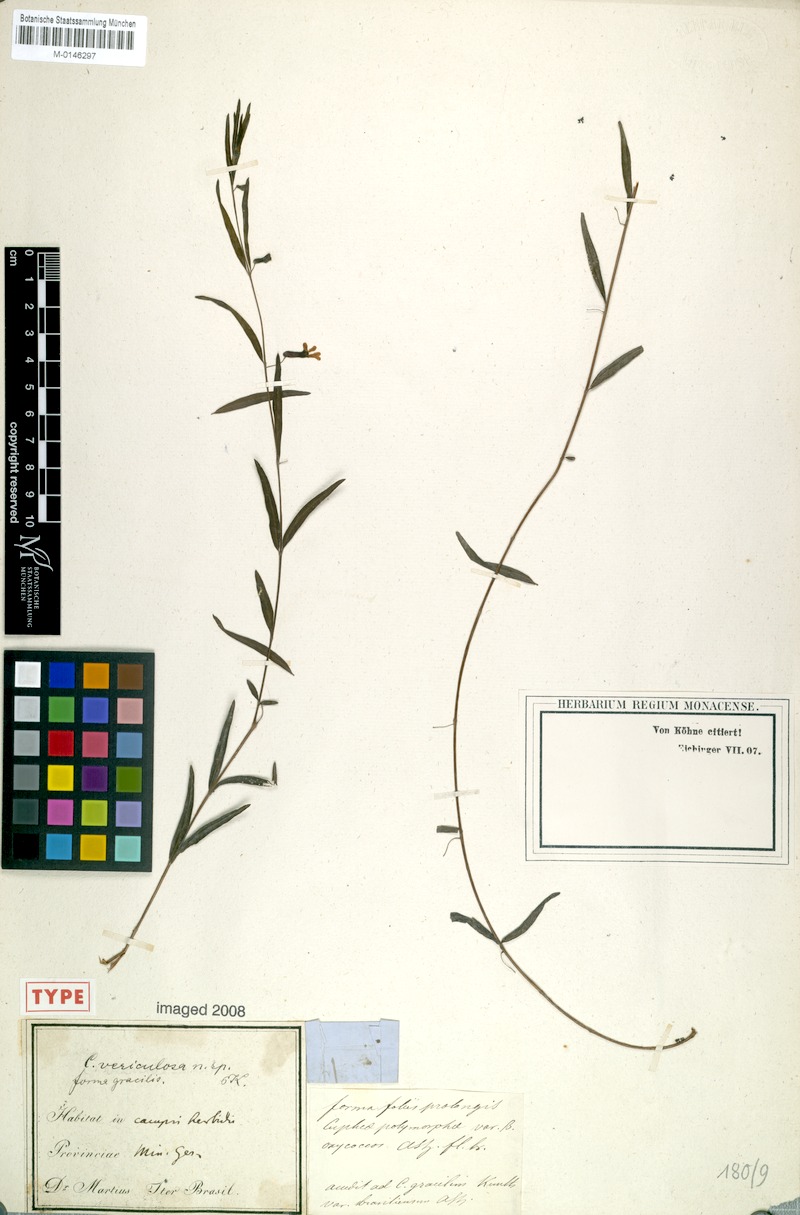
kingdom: Plantae
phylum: Tracheophyta
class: Magnoliopsida
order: Myrtales
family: Lythraceae
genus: Cuphea
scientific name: Cuphea vesiculosa
